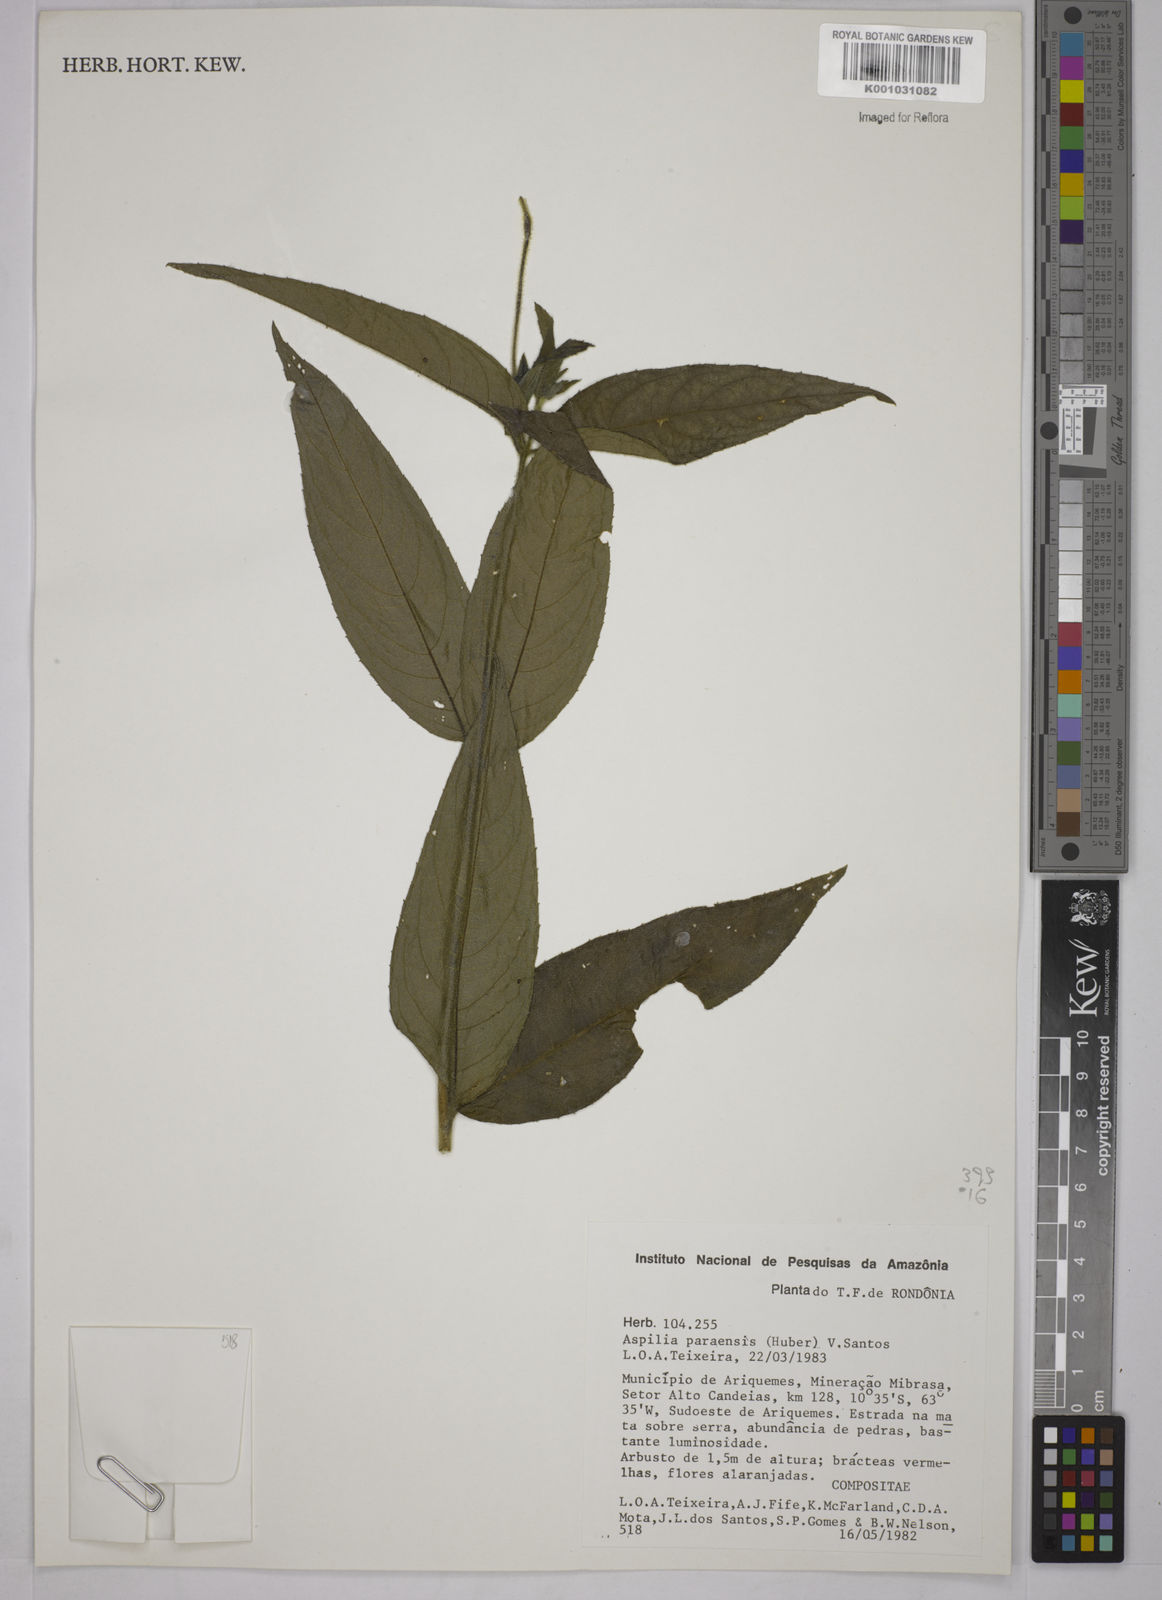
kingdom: Plantae
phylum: Tracheophyta
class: Magnoliopsida
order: Asterales
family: Asteraceae
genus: Aspilia
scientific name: Aspilia paraensis
